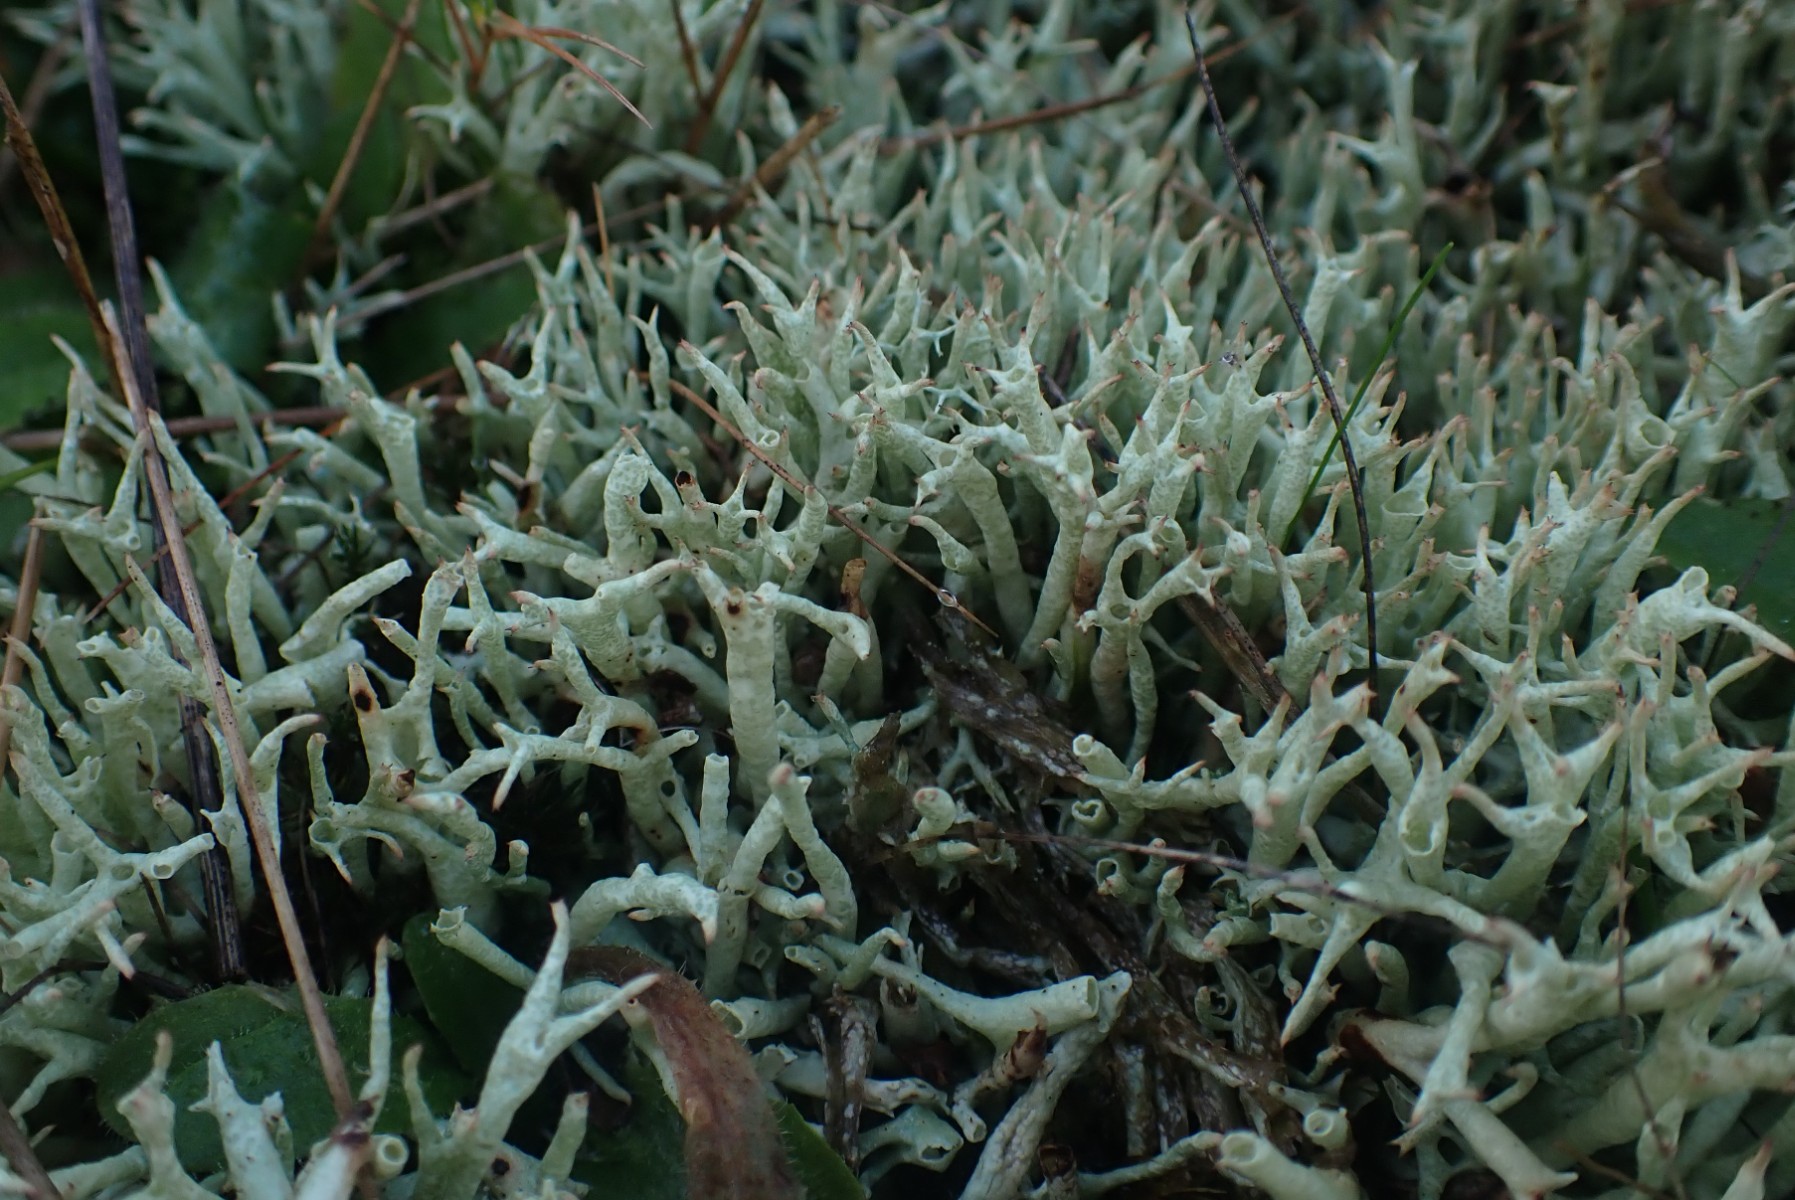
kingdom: Fungi
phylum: Ascomycota
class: Lecanoromycetes
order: Lecanorales
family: Cladoniaceae
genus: Cladonia
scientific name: Cladonia uncialis
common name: pigget bægerlav
